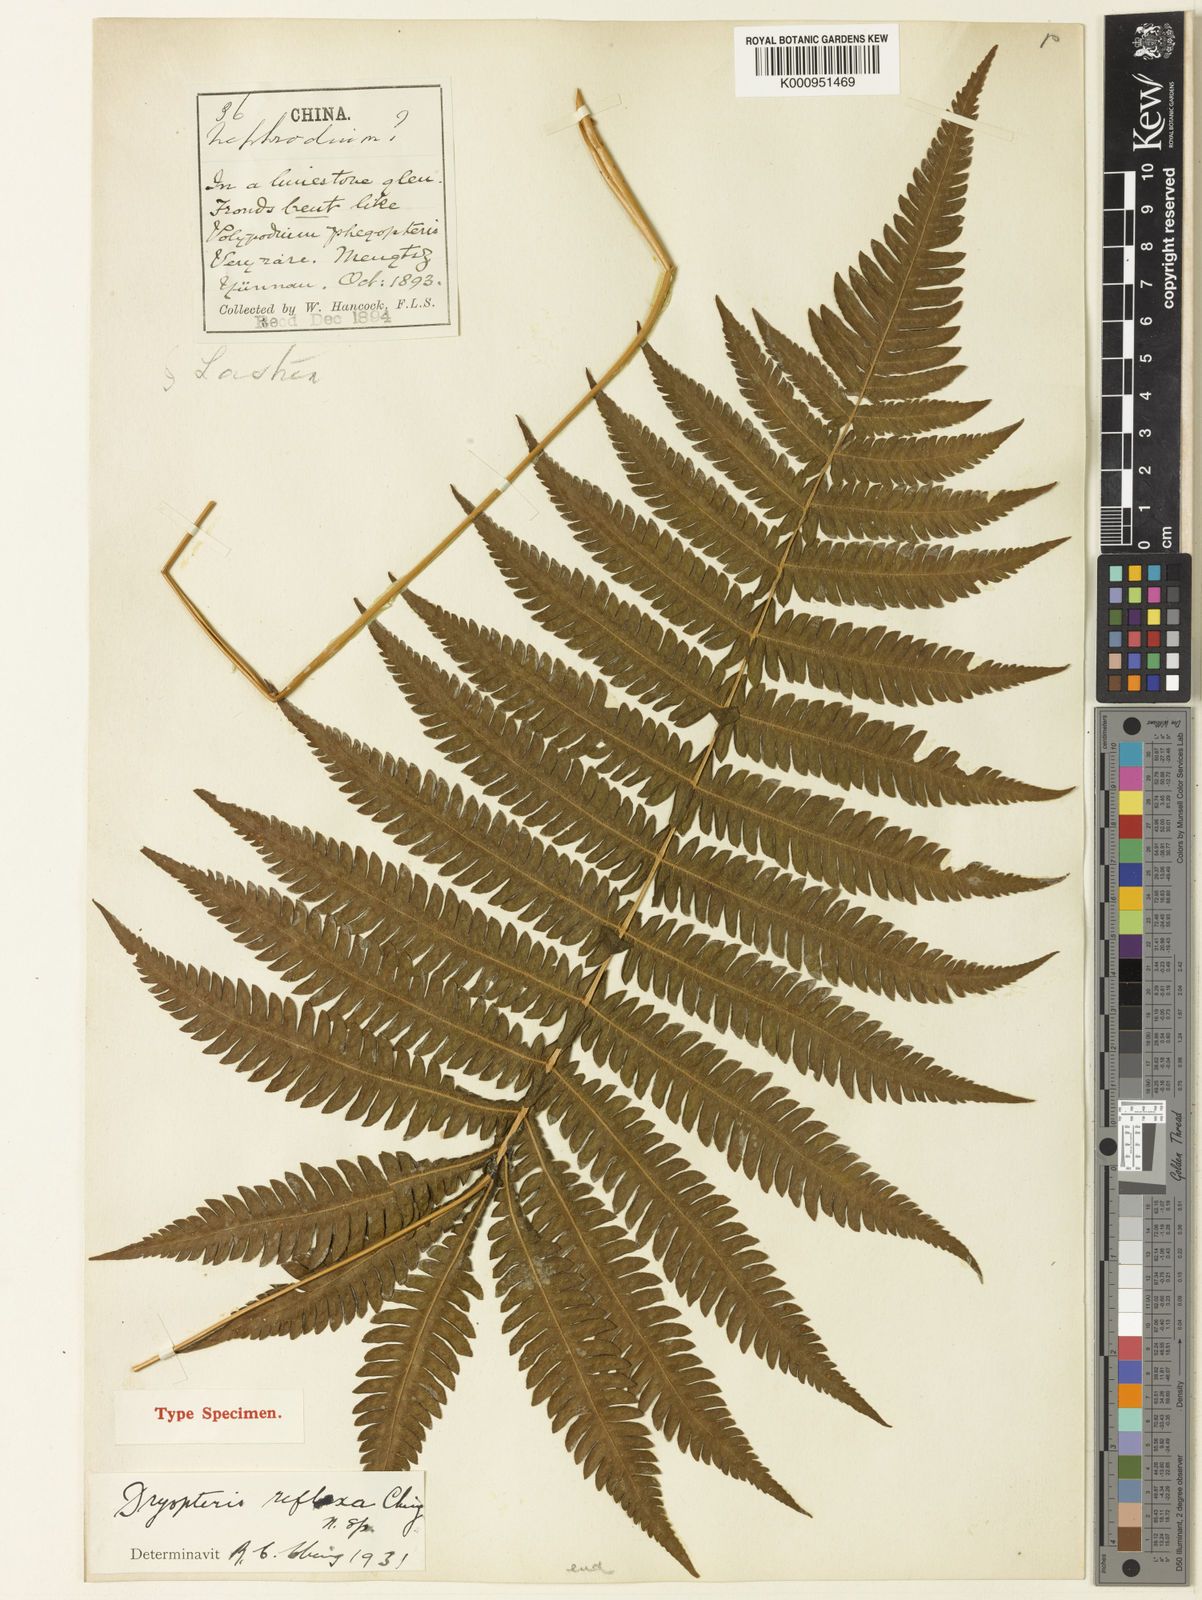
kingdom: Plantae
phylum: Tracheophyta
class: Polypodiopsida
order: Polypodiales
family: Thelypteridaceae
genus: Glaphyropteridopsis
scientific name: Glaphyropteridopsis erubescens
